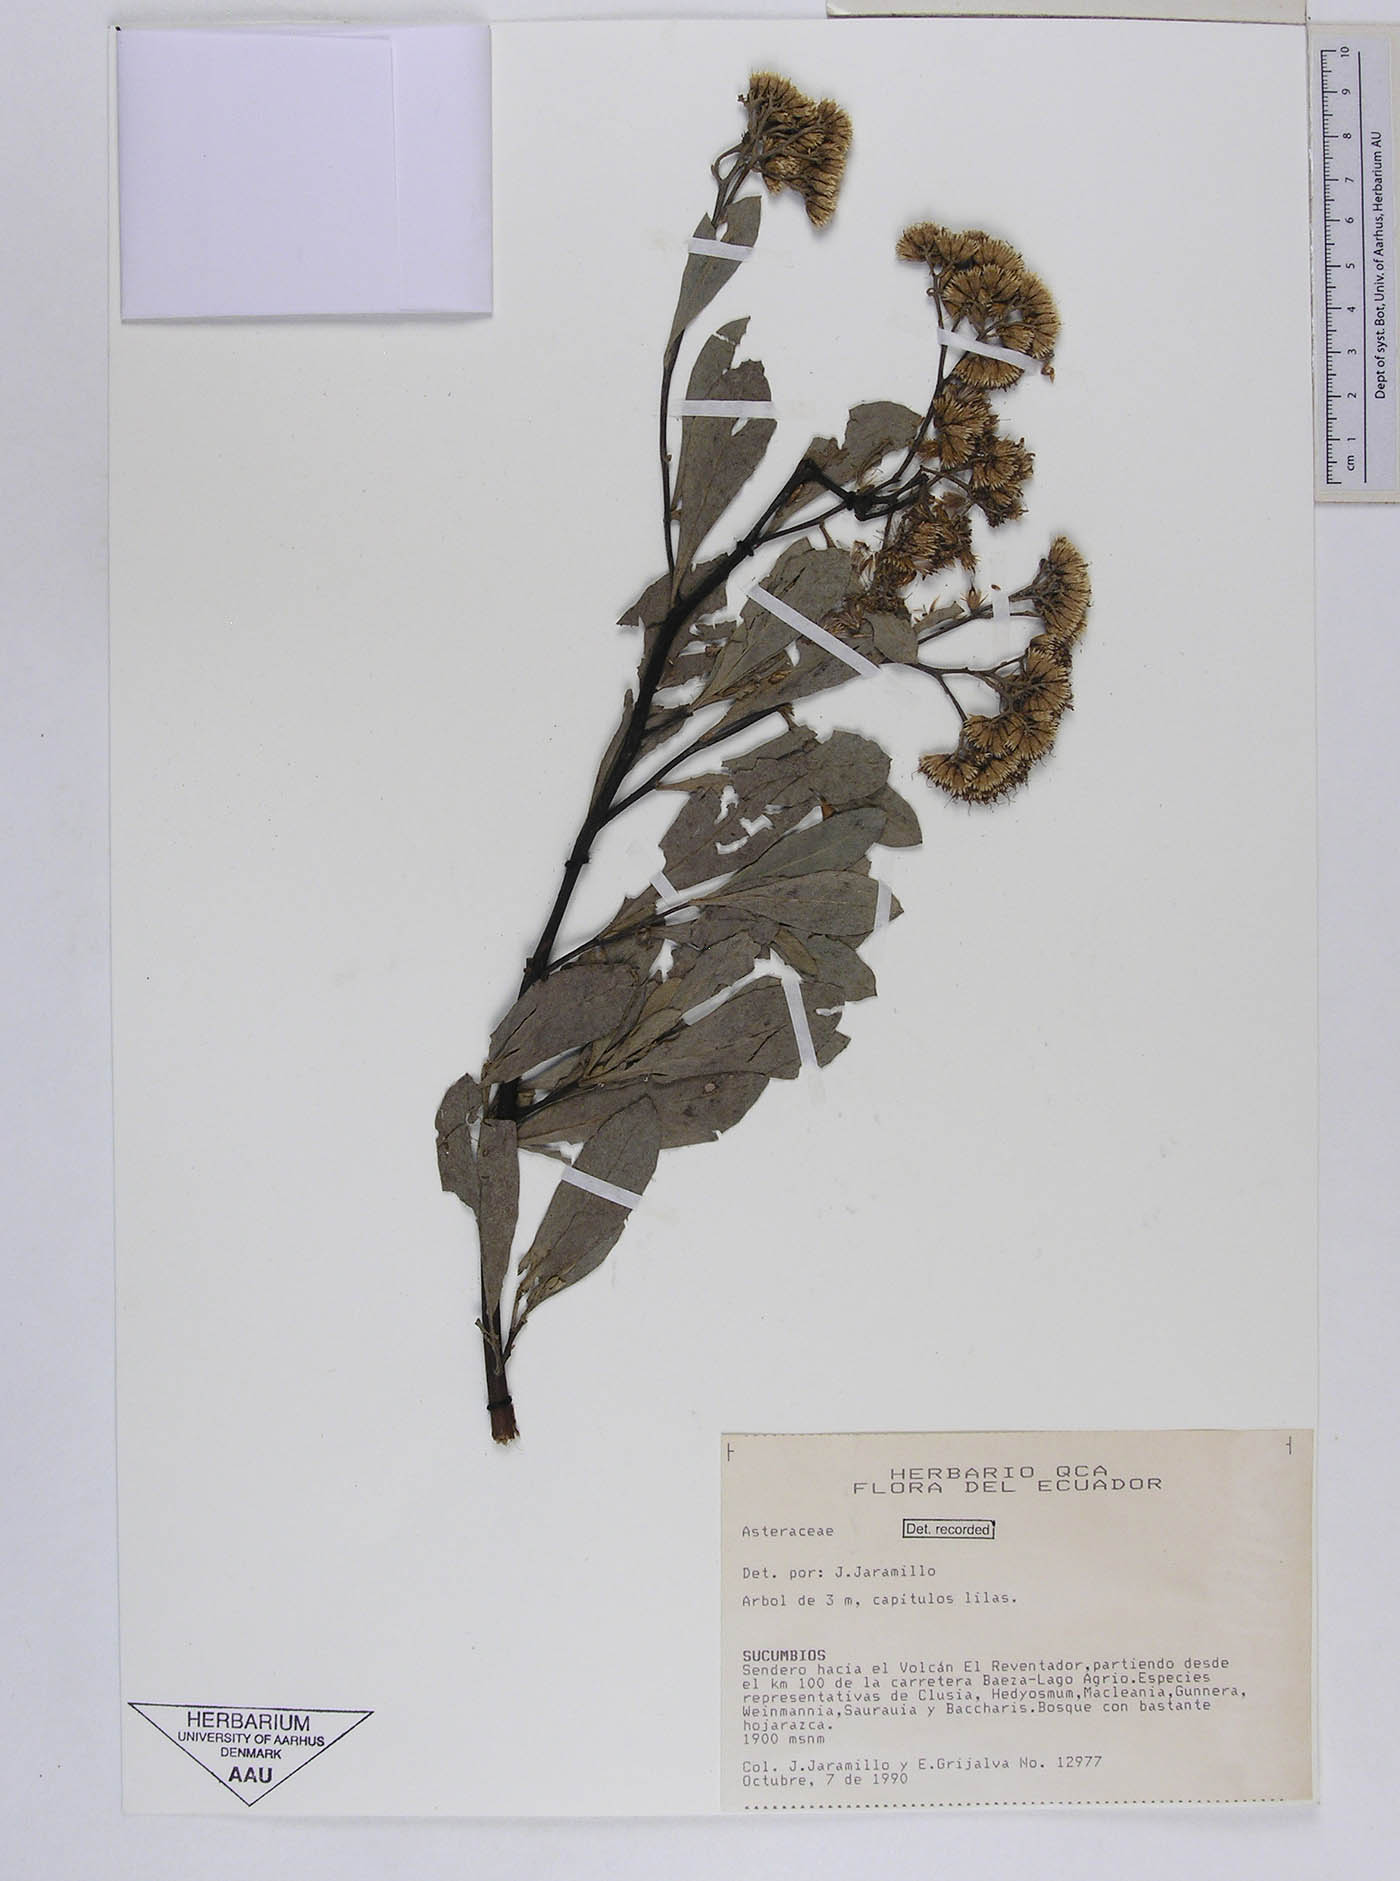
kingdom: Plantae
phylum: Tracheophyta
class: Magnoliopsida
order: Asterales
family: Asteraceae
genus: Tessaria
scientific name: Tessaria integrifolia
